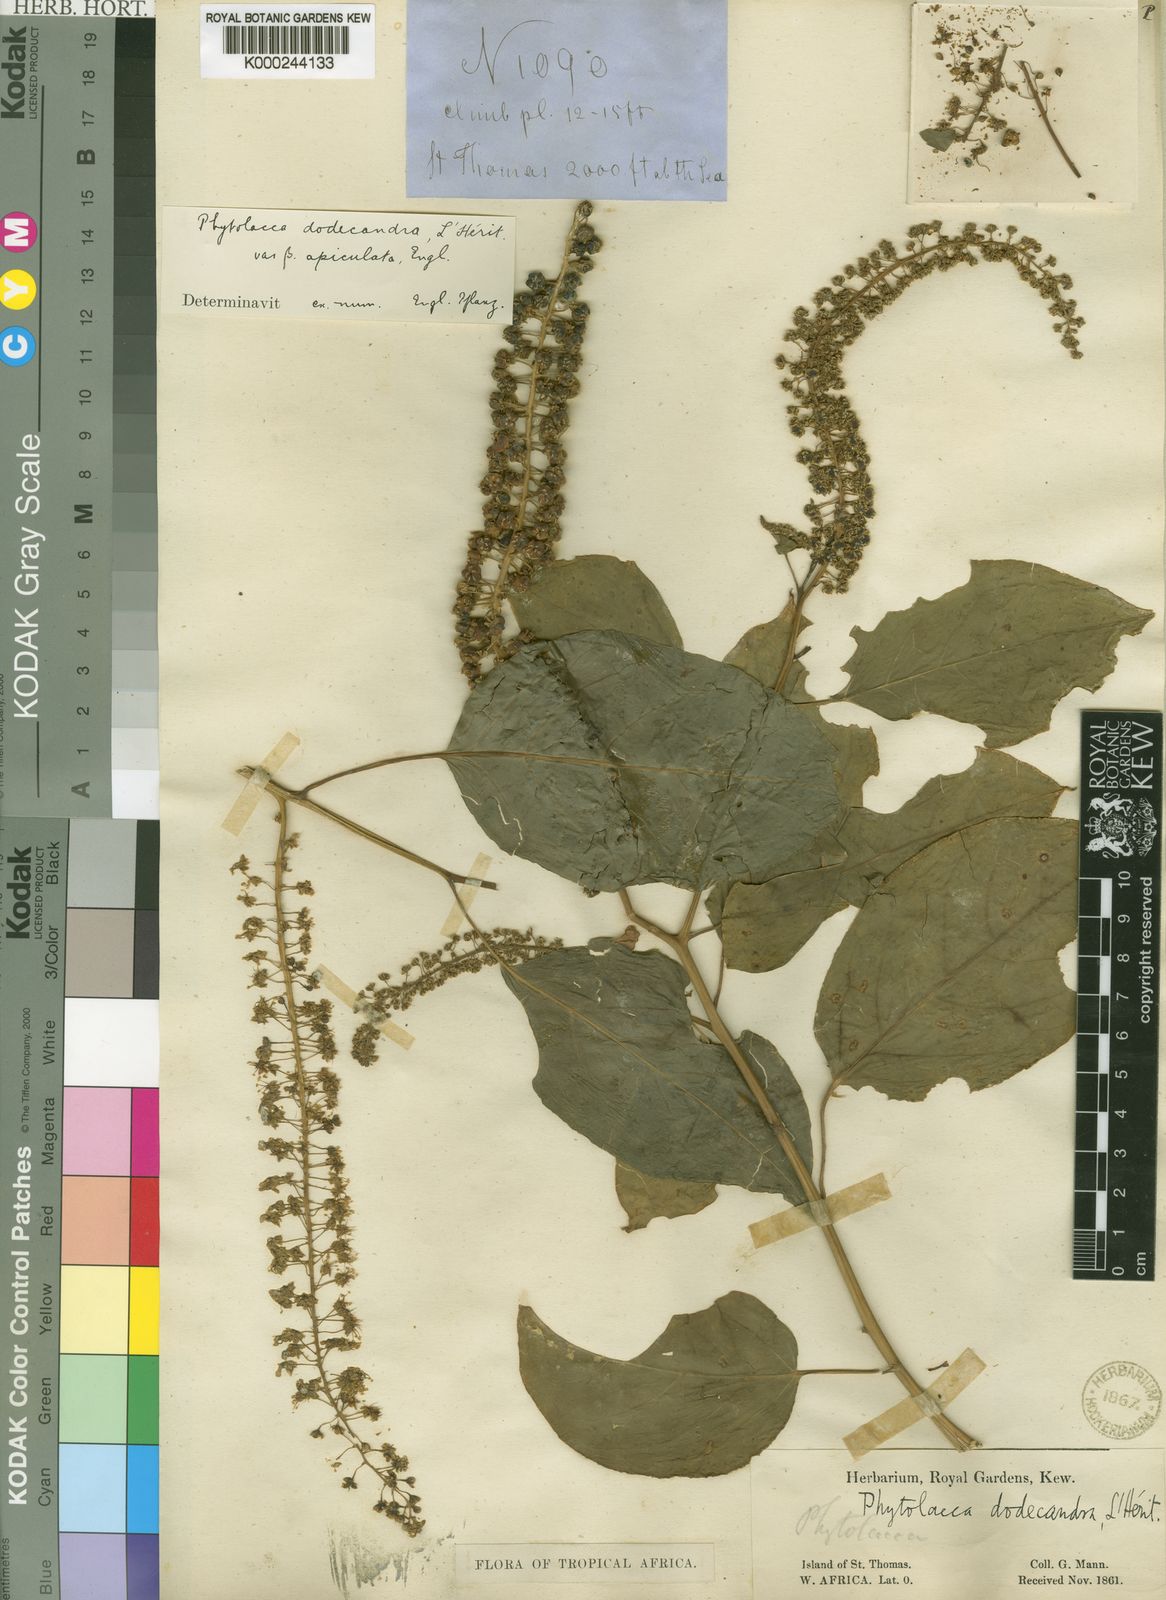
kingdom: Plantae
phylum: Tracheophyta
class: Magnoliopsida
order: Caryophyllales
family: Phytolaccaceae
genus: Phytolacca
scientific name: Phytolacca
